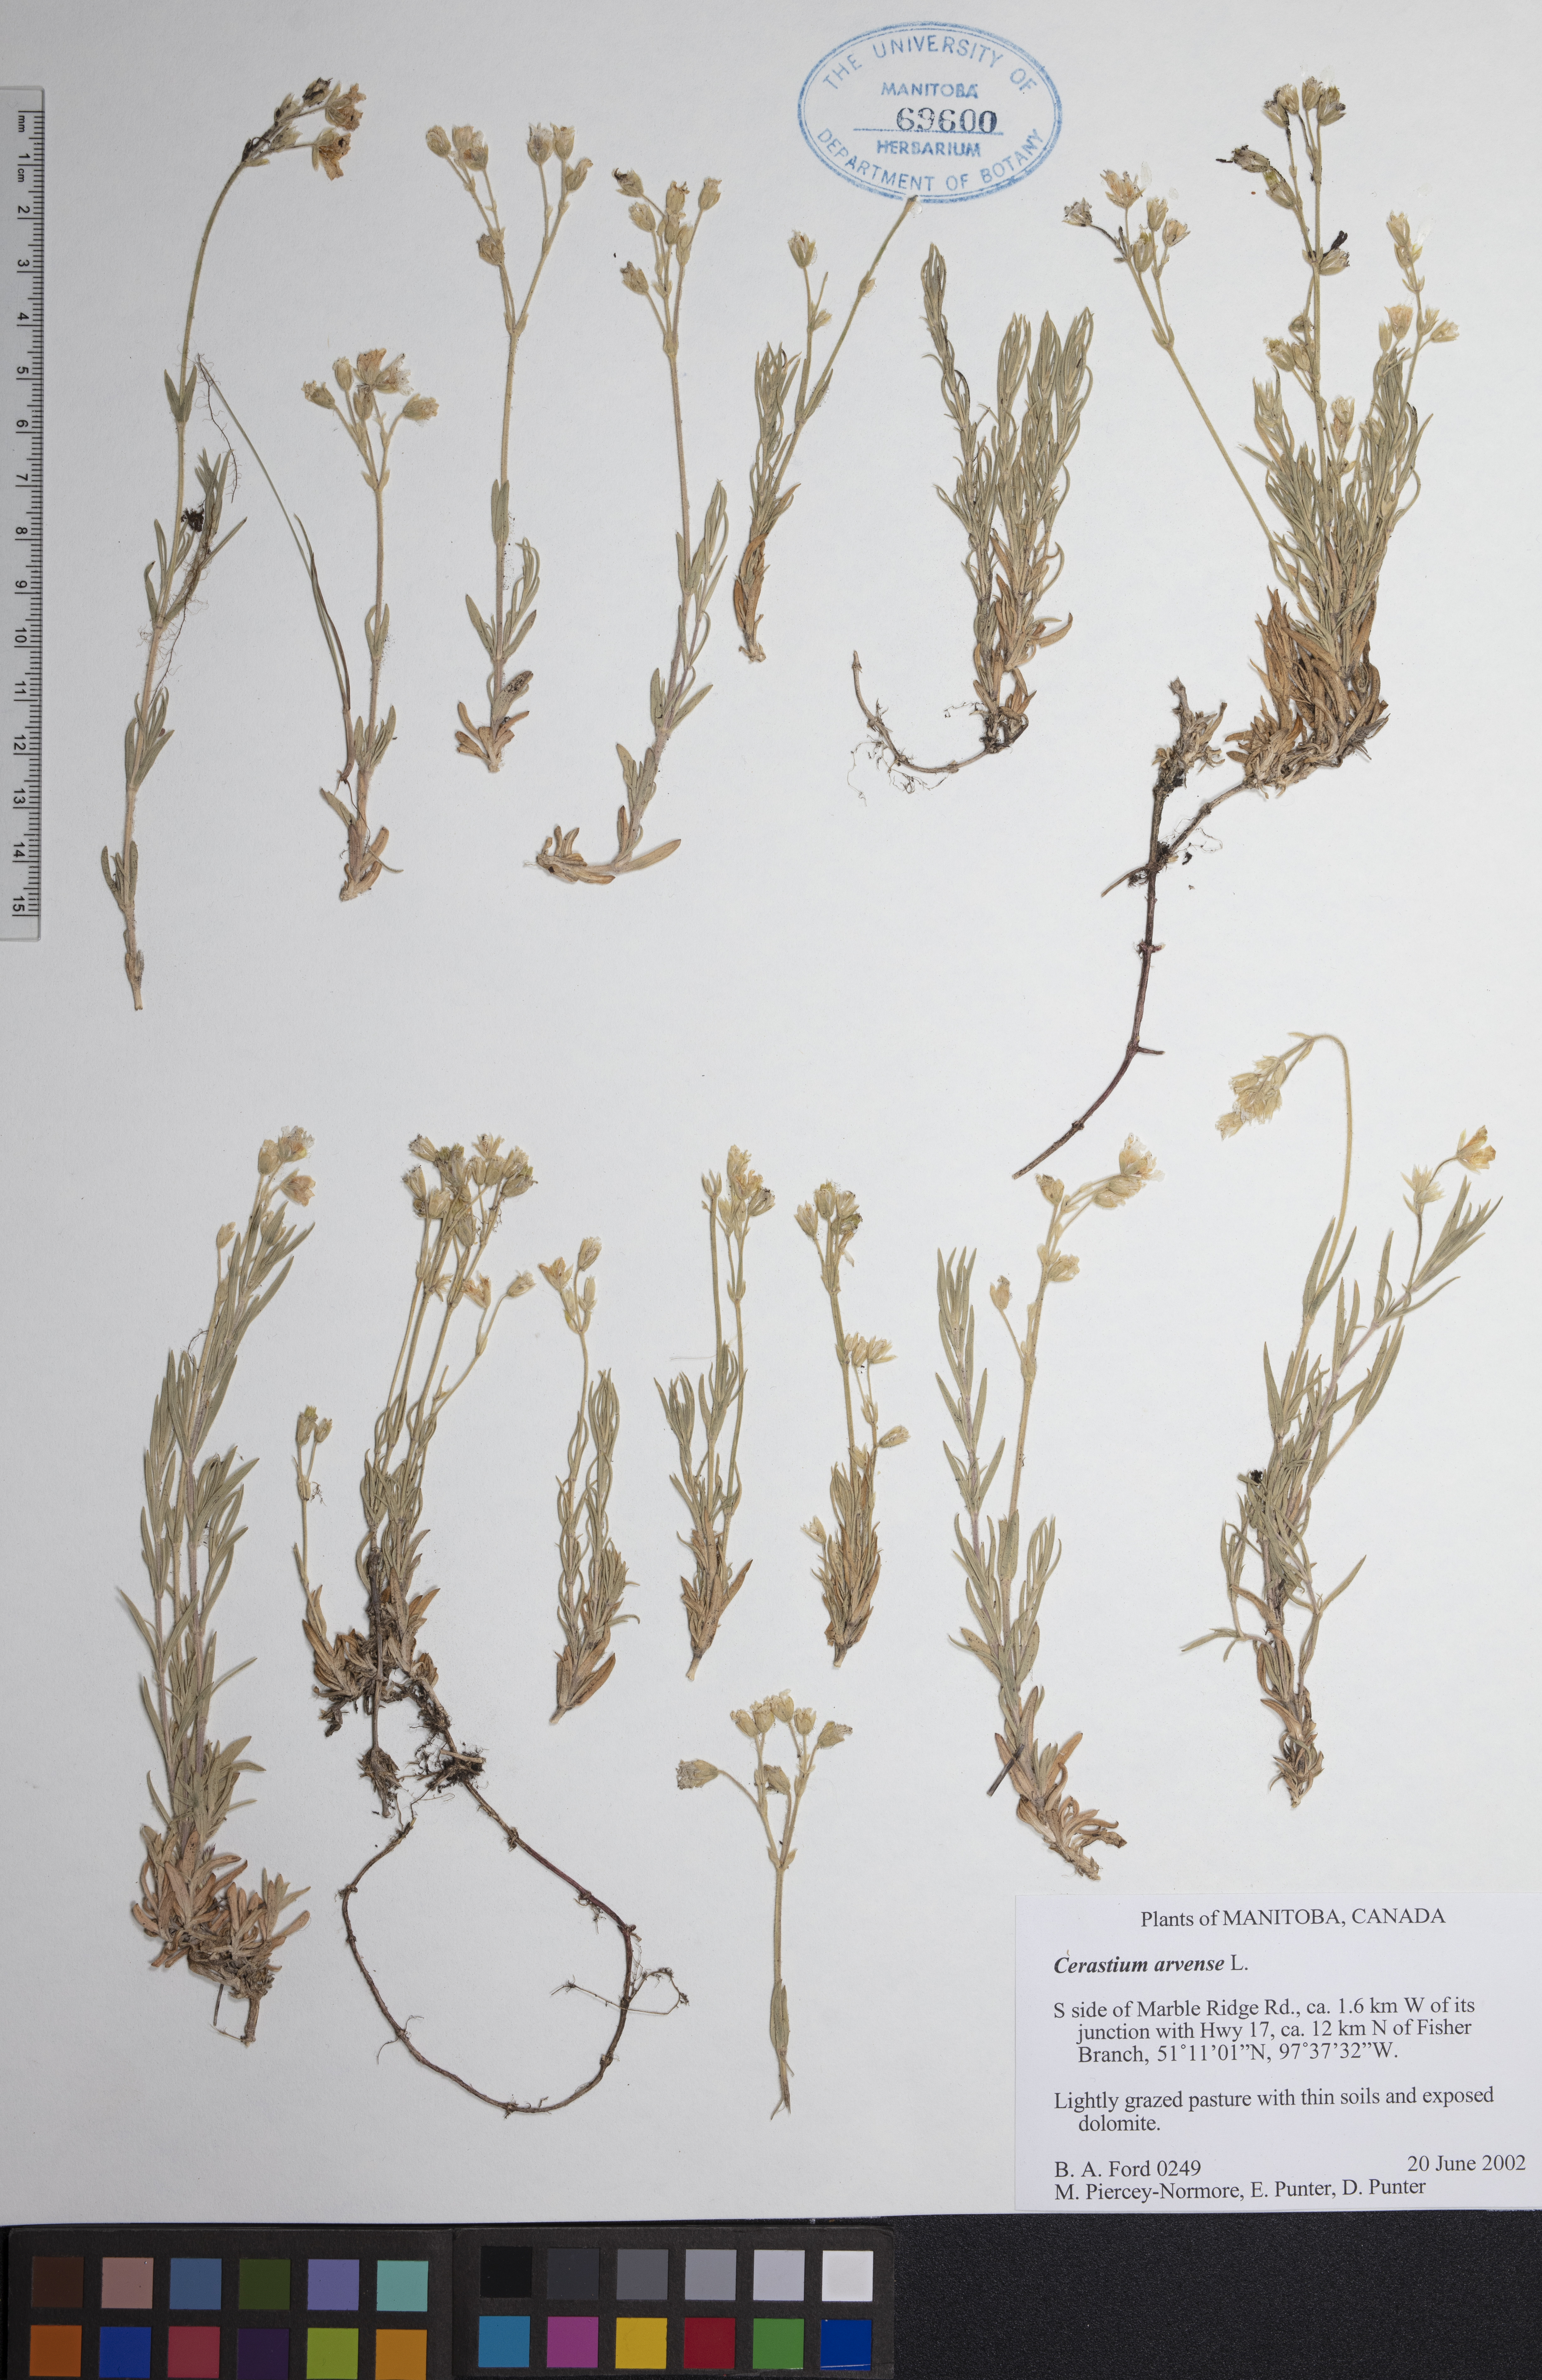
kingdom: Plantae
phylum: Tracheophyta
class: Magnoliopsida
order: Caryophyllales
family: Caryophyllaceae
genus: Cerastium
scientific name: Cerastium arvense
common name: Field mouse-ear
